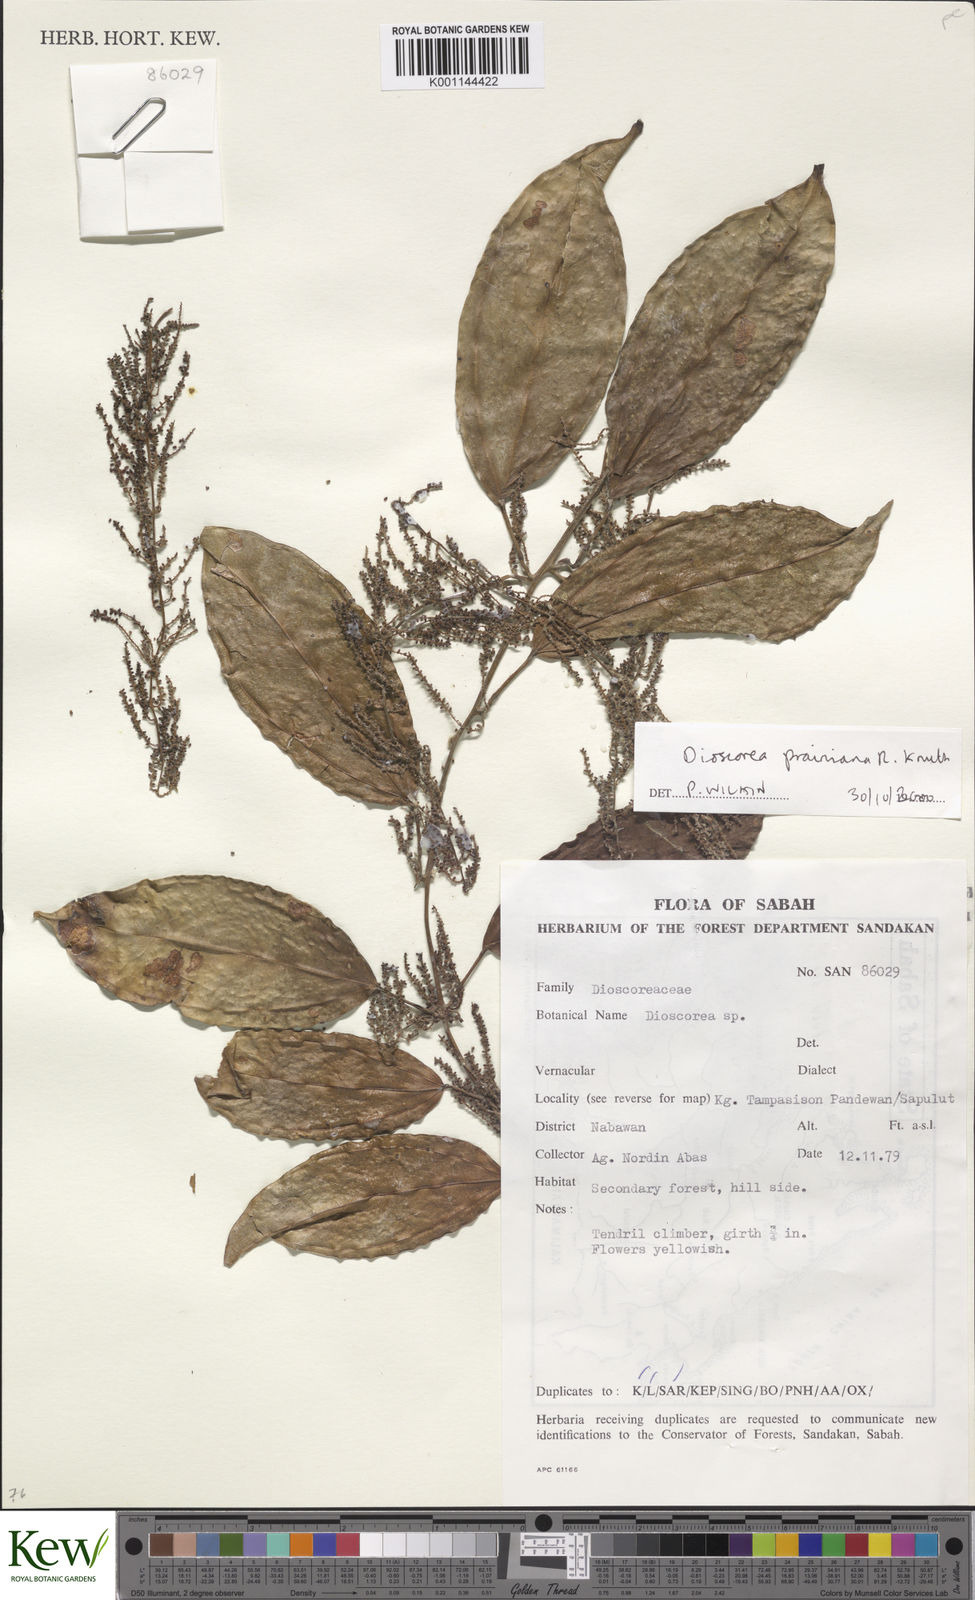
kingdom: Plantae
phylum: Tracheophyta
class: Liliopsida
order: Dioscoreales
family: Dioscoreaceae
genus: Dioscorea
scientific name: Dioscorea prainiana
